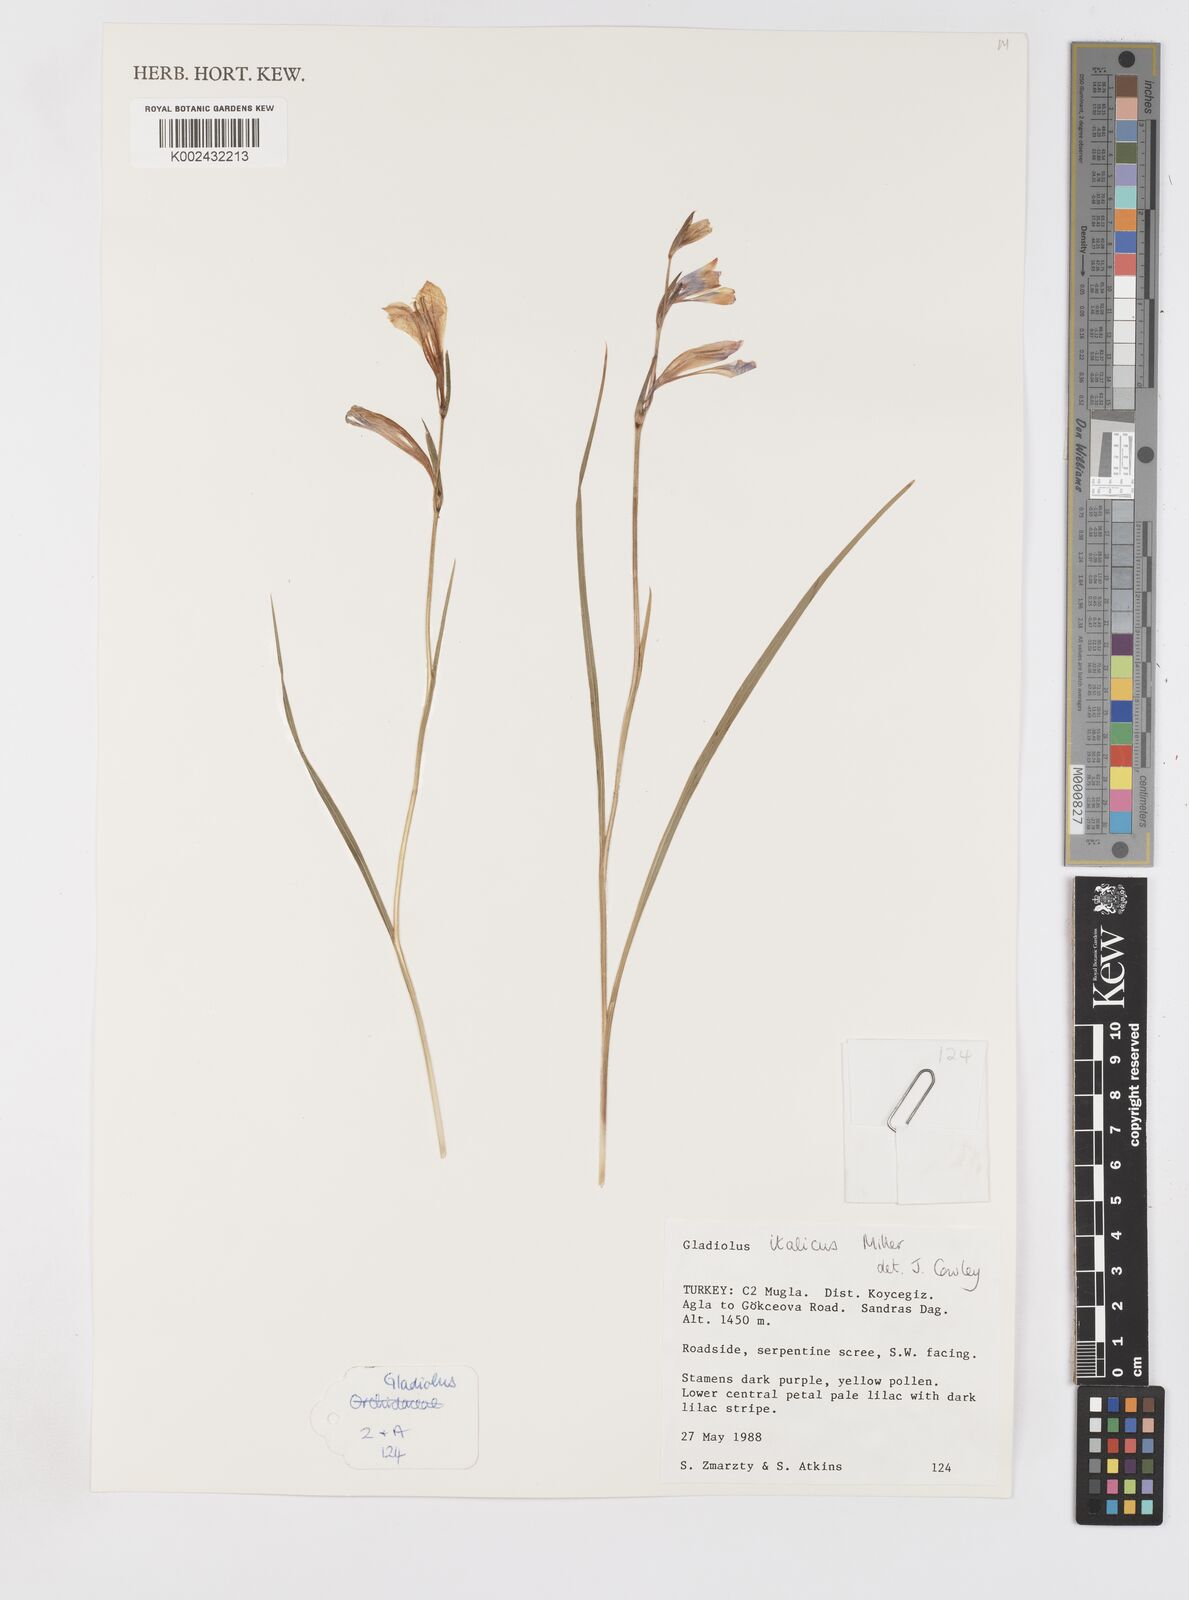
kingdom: Plantae
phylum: Tracheophyta
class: Liliopsida
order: Asparagales
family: Iridaceae
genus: Gladiolus
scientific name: Gladiolus italicus
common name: Field gladiolus
